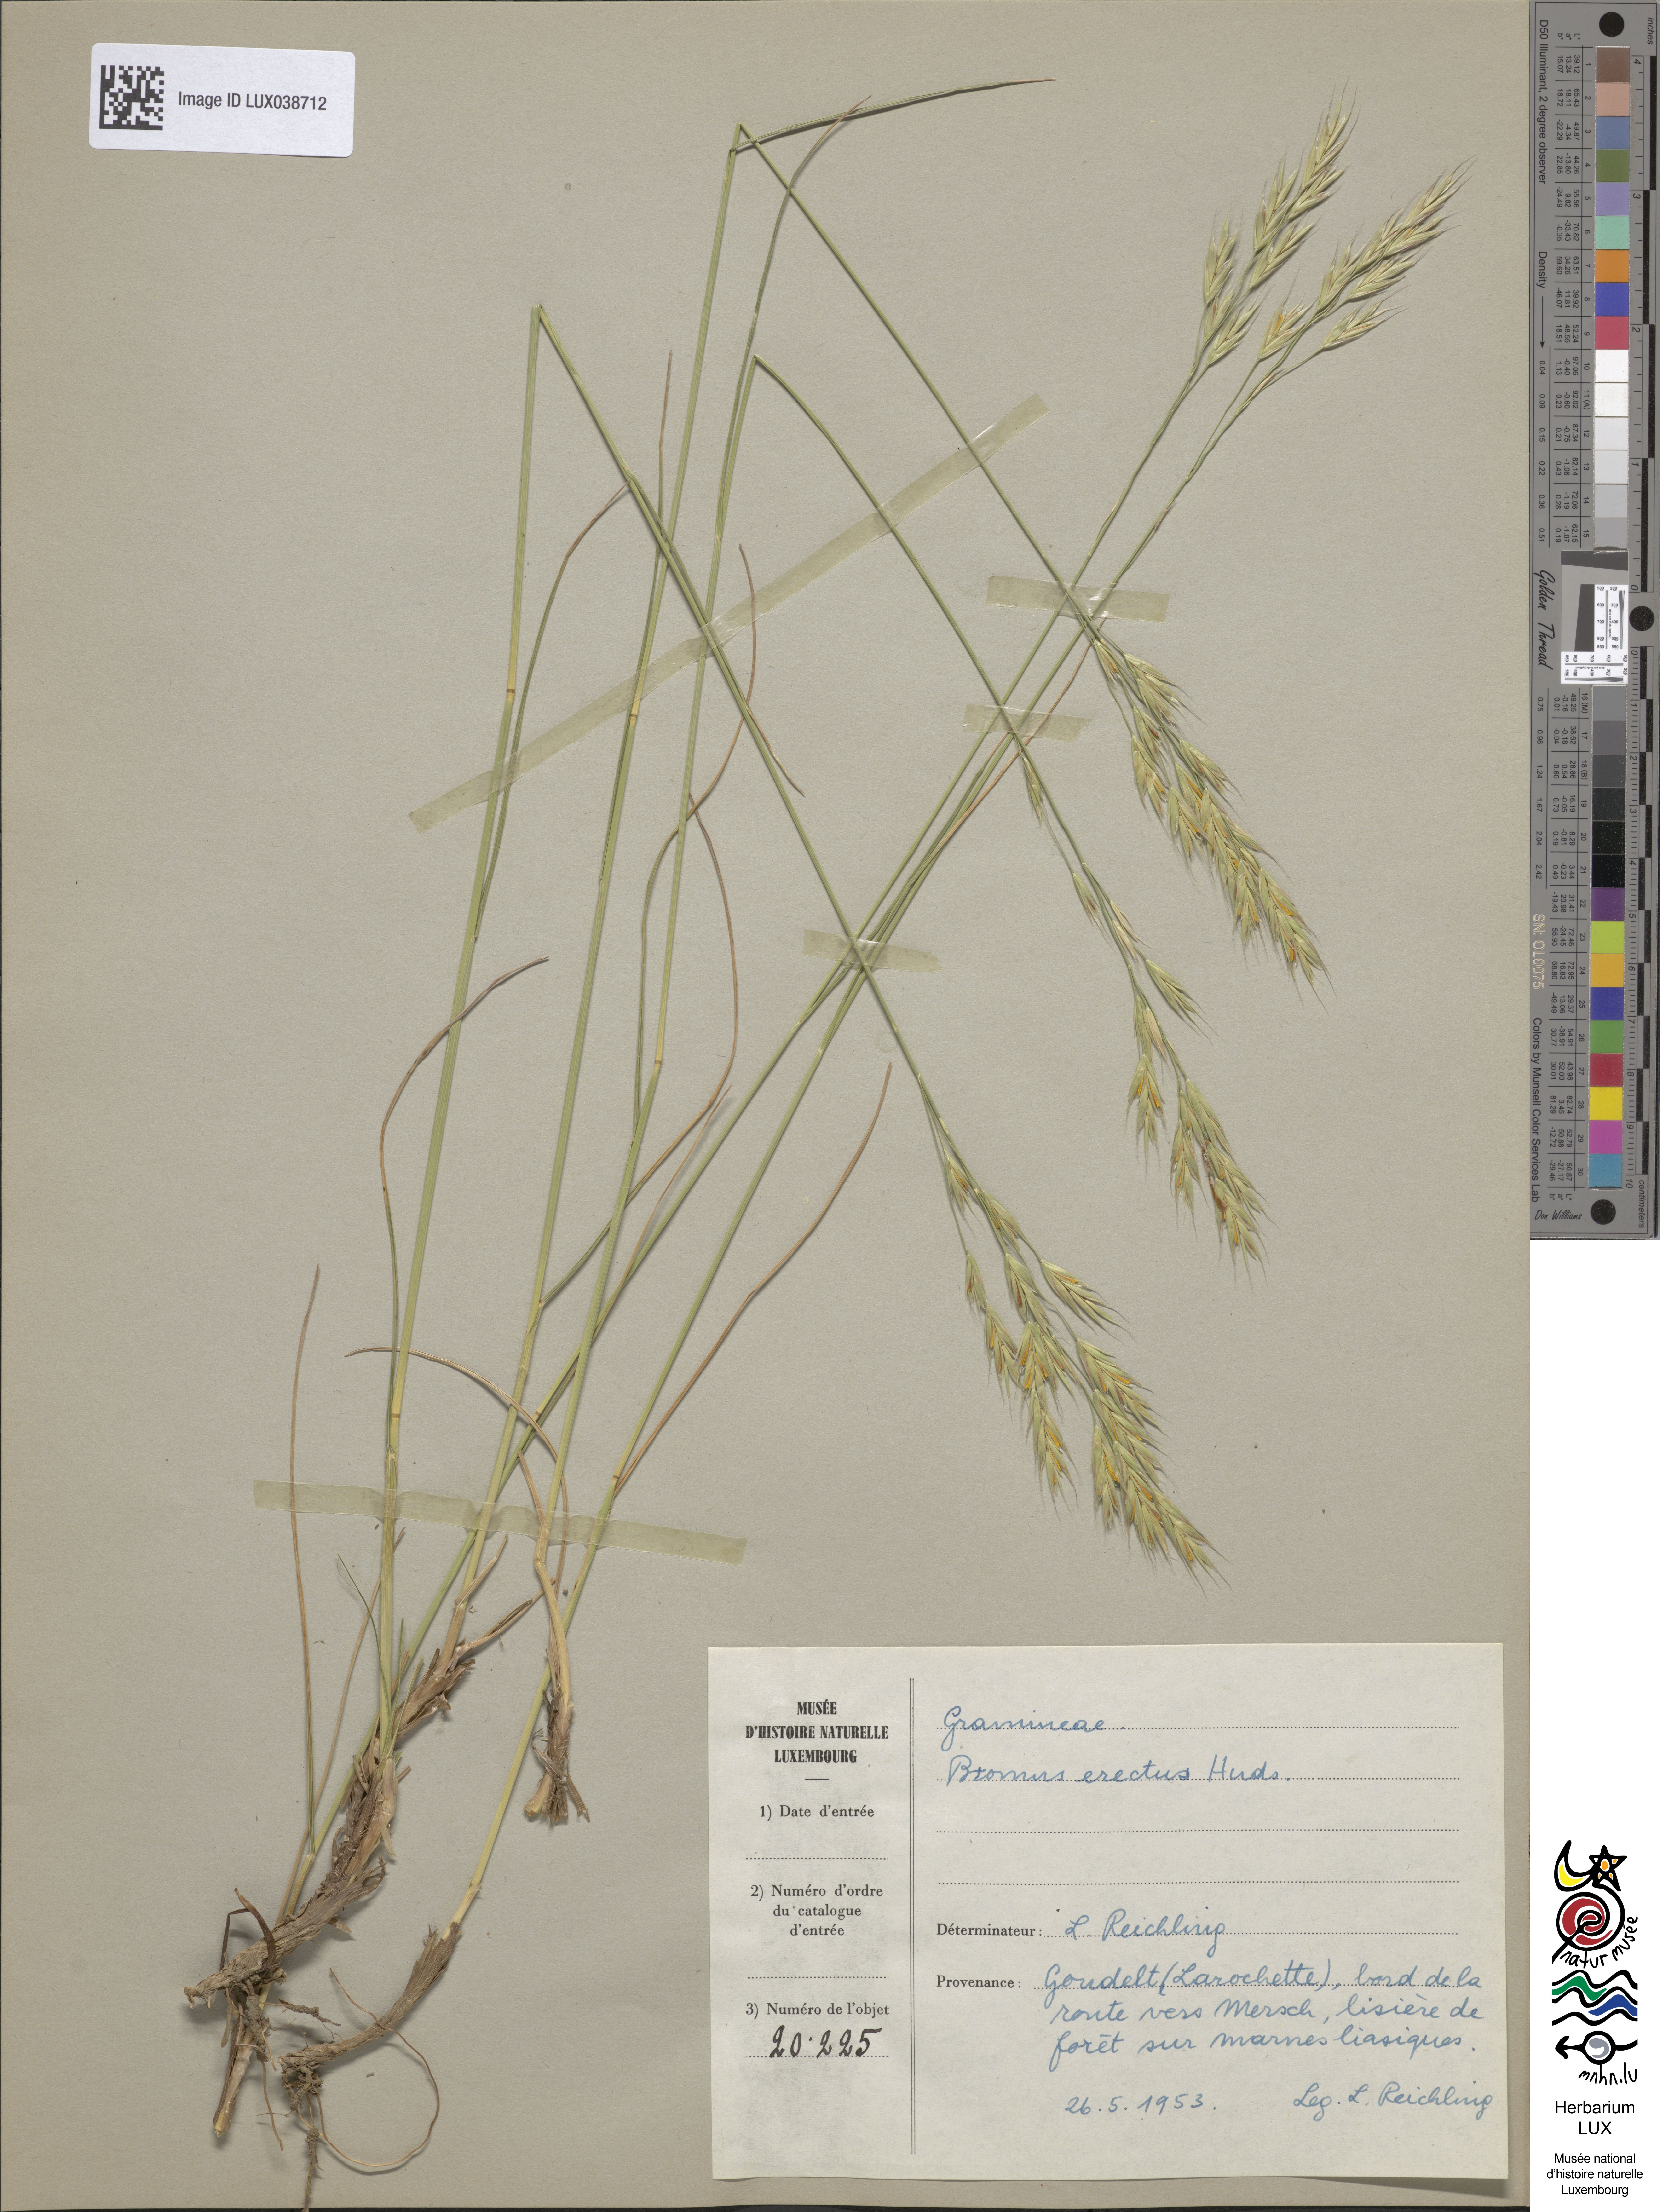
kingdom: Plantae
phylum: Tracheophyta
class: Liliopsida
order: Poales
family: Poaceae
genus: Bromus
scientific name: Bromus erectus
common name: Erect brome
